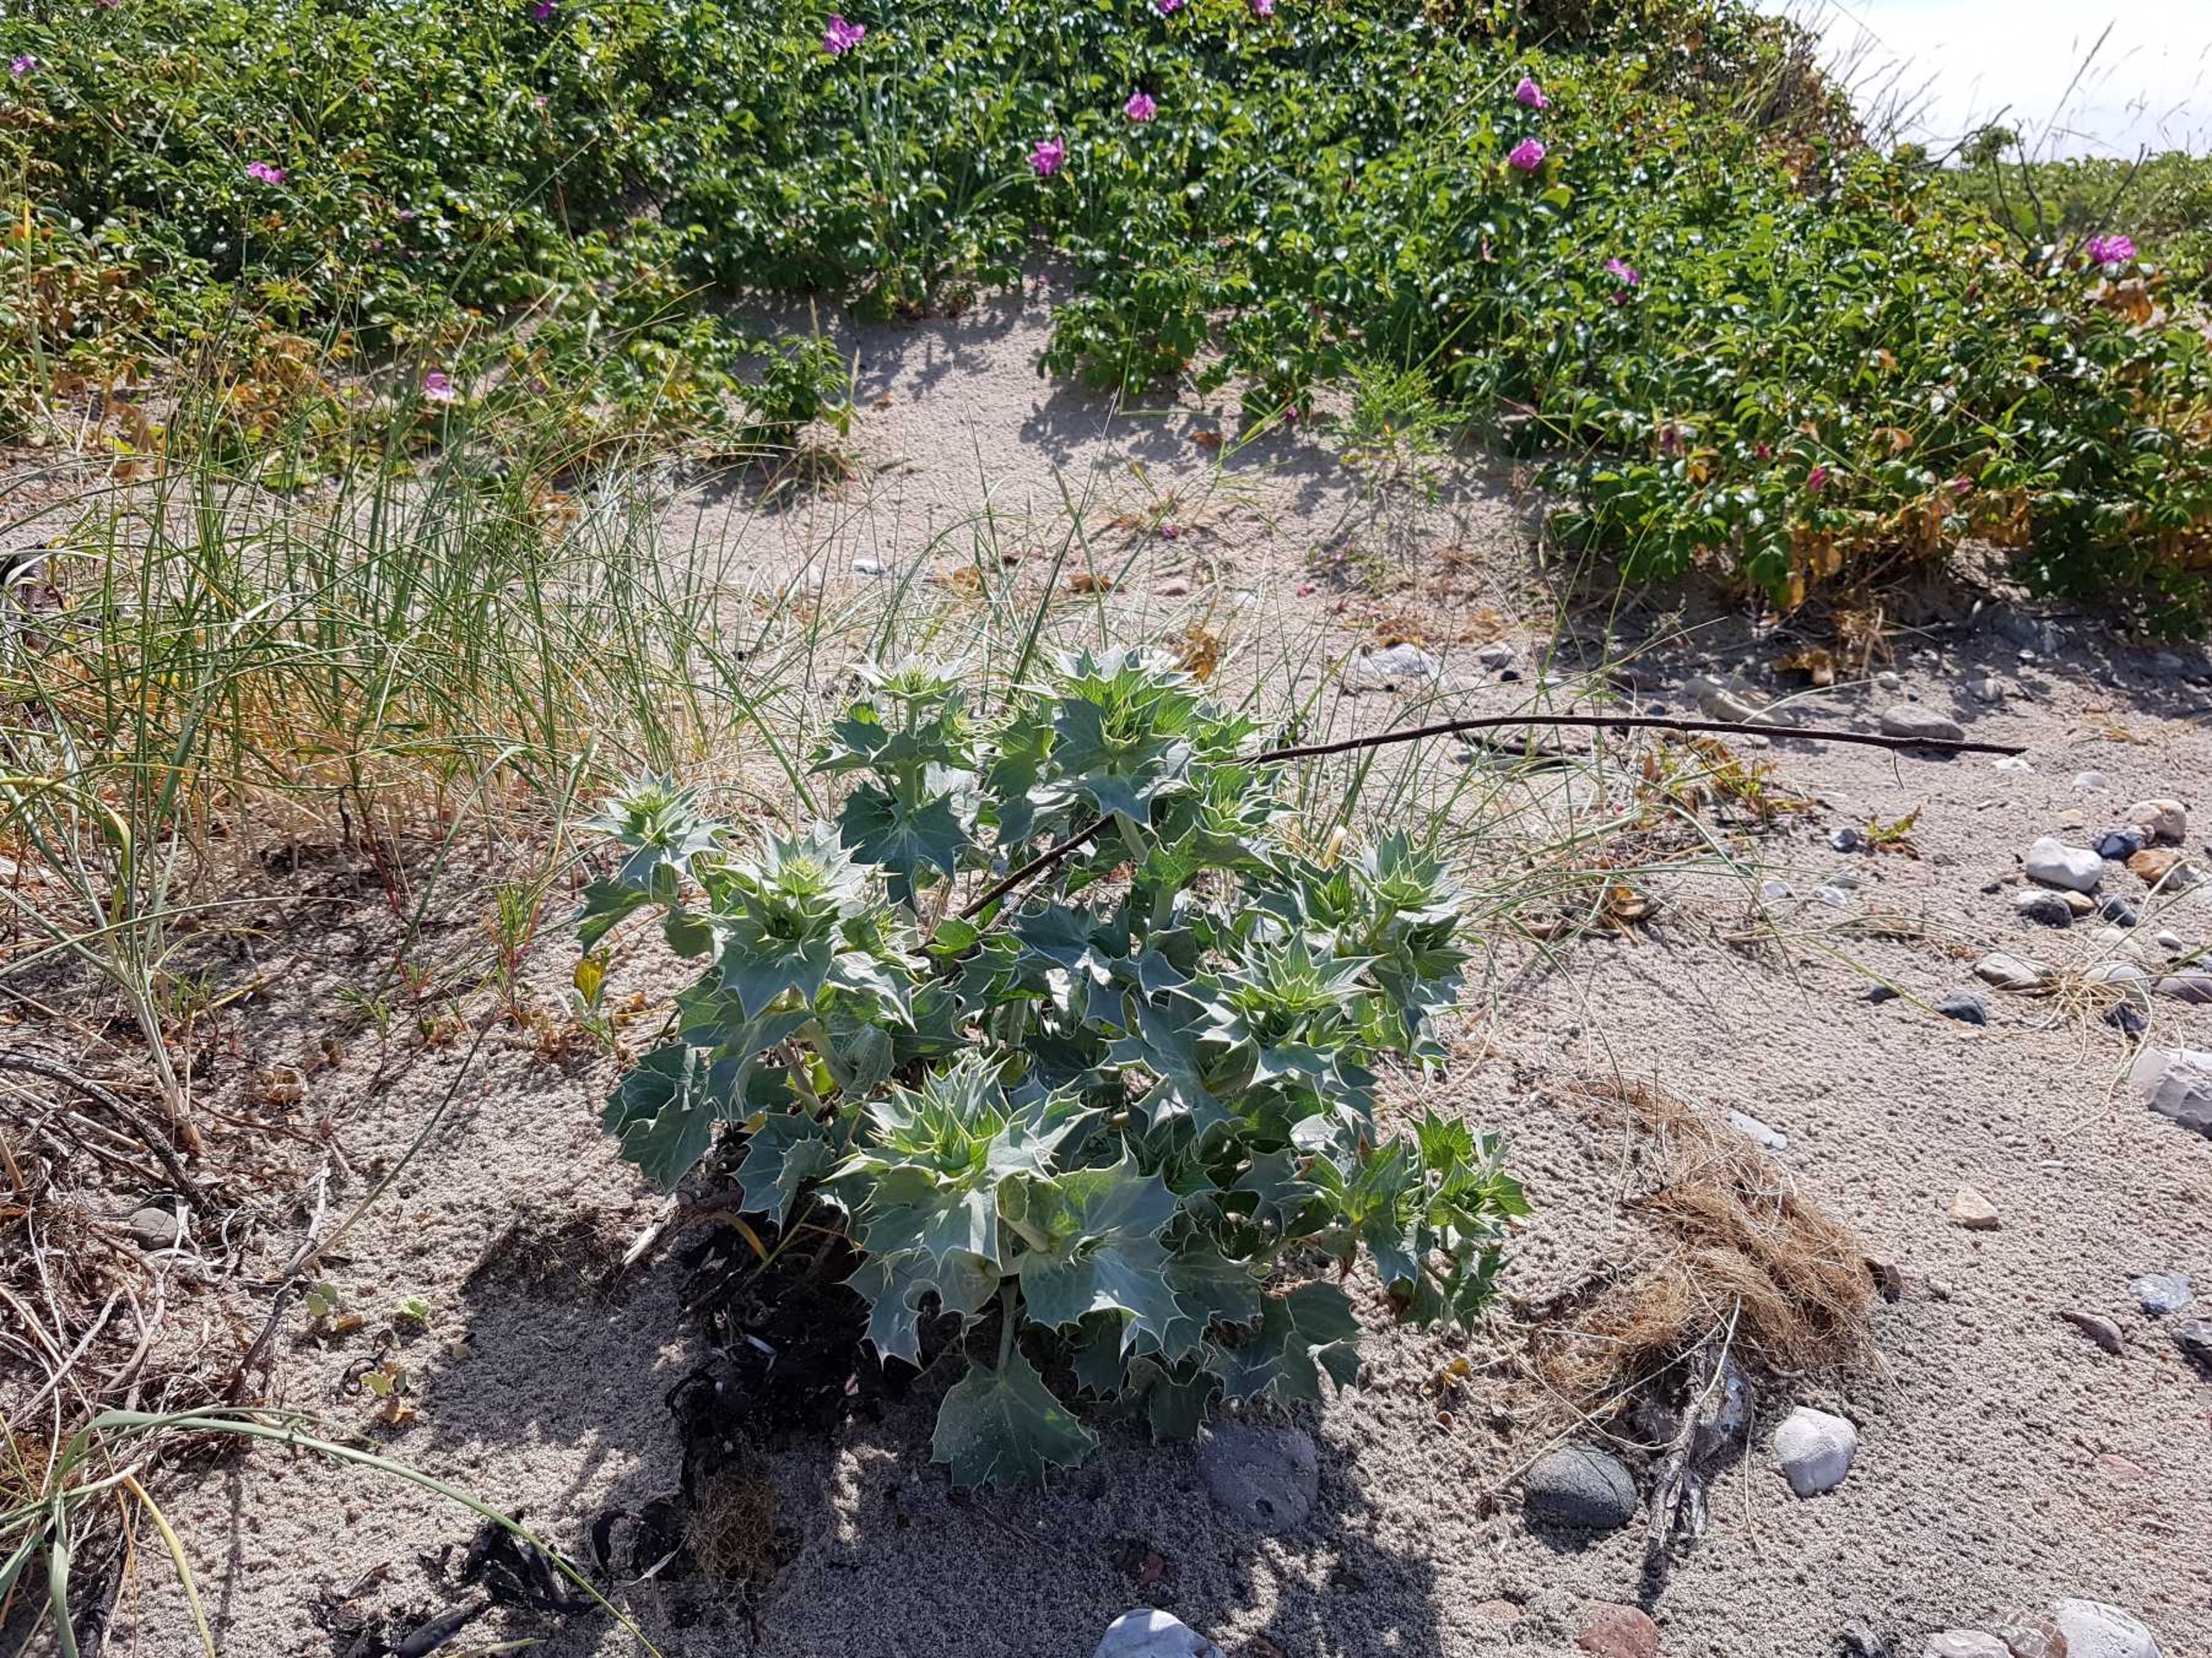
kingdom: Plantae
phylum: Tracheophyta
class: Magnoliopsida
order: Apiales
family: Apiaceae
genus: Eryngium
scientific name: Eryngium maritimum
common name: Strand-mandstro
